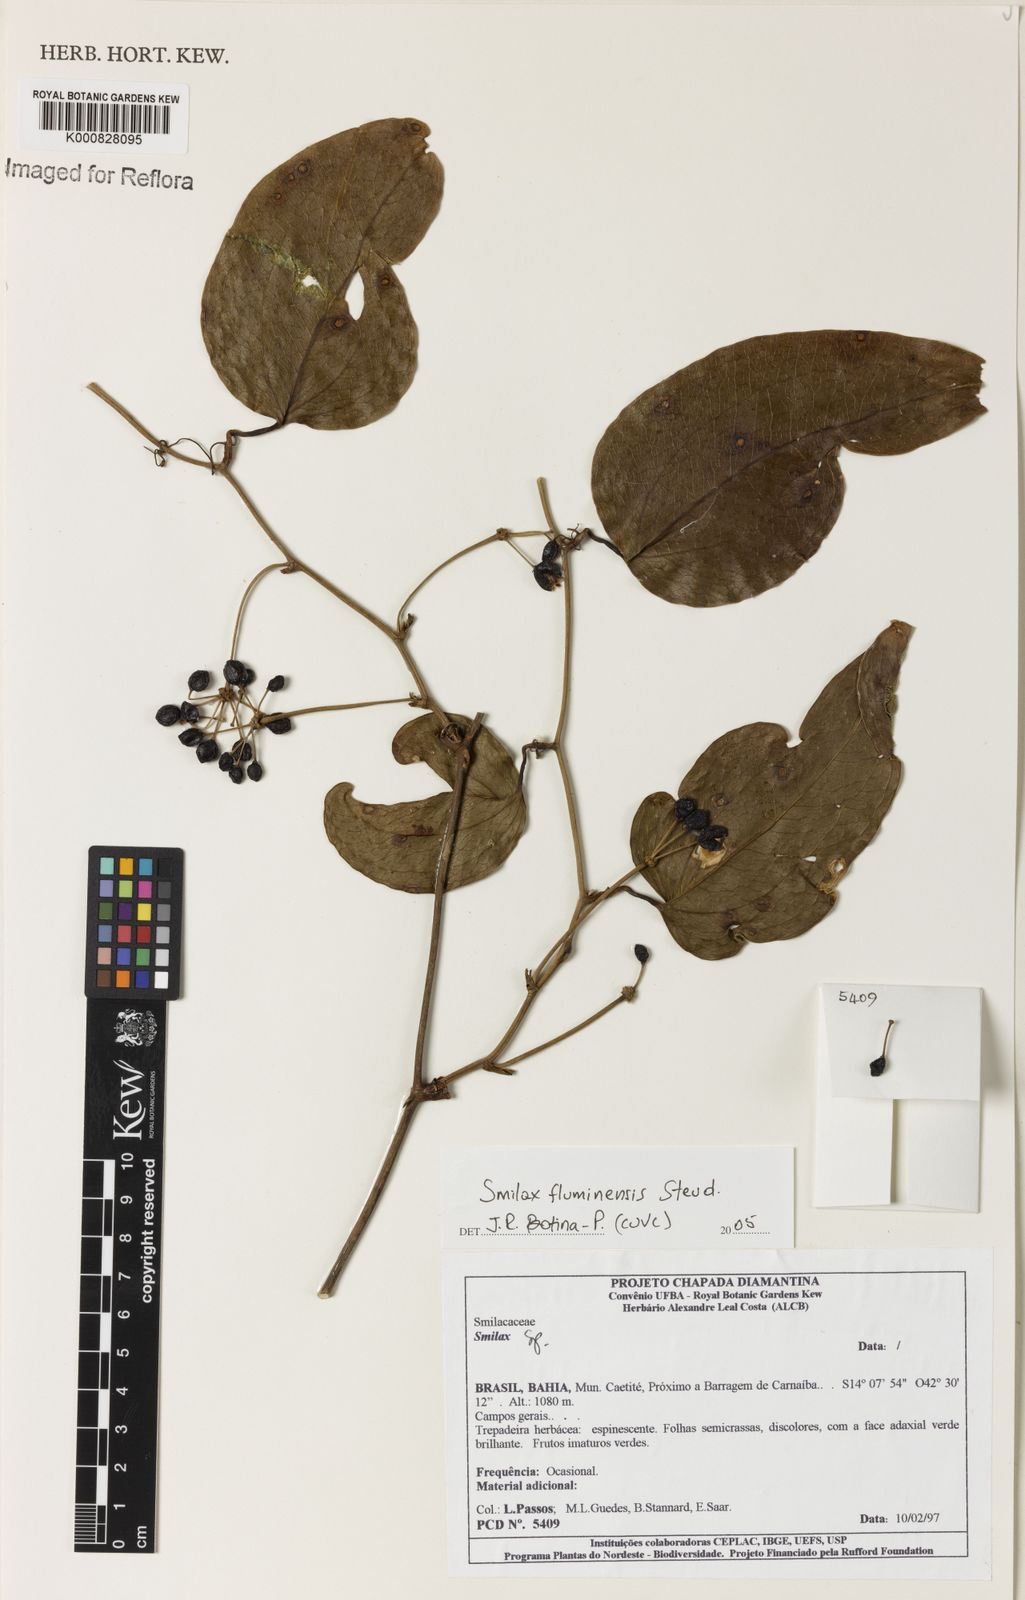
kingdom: Plantae
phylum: Tracheophyta
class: Liliopsida
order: Liliales
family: Smilacaceae
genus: Smilax
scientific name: Smilax fluminensis
